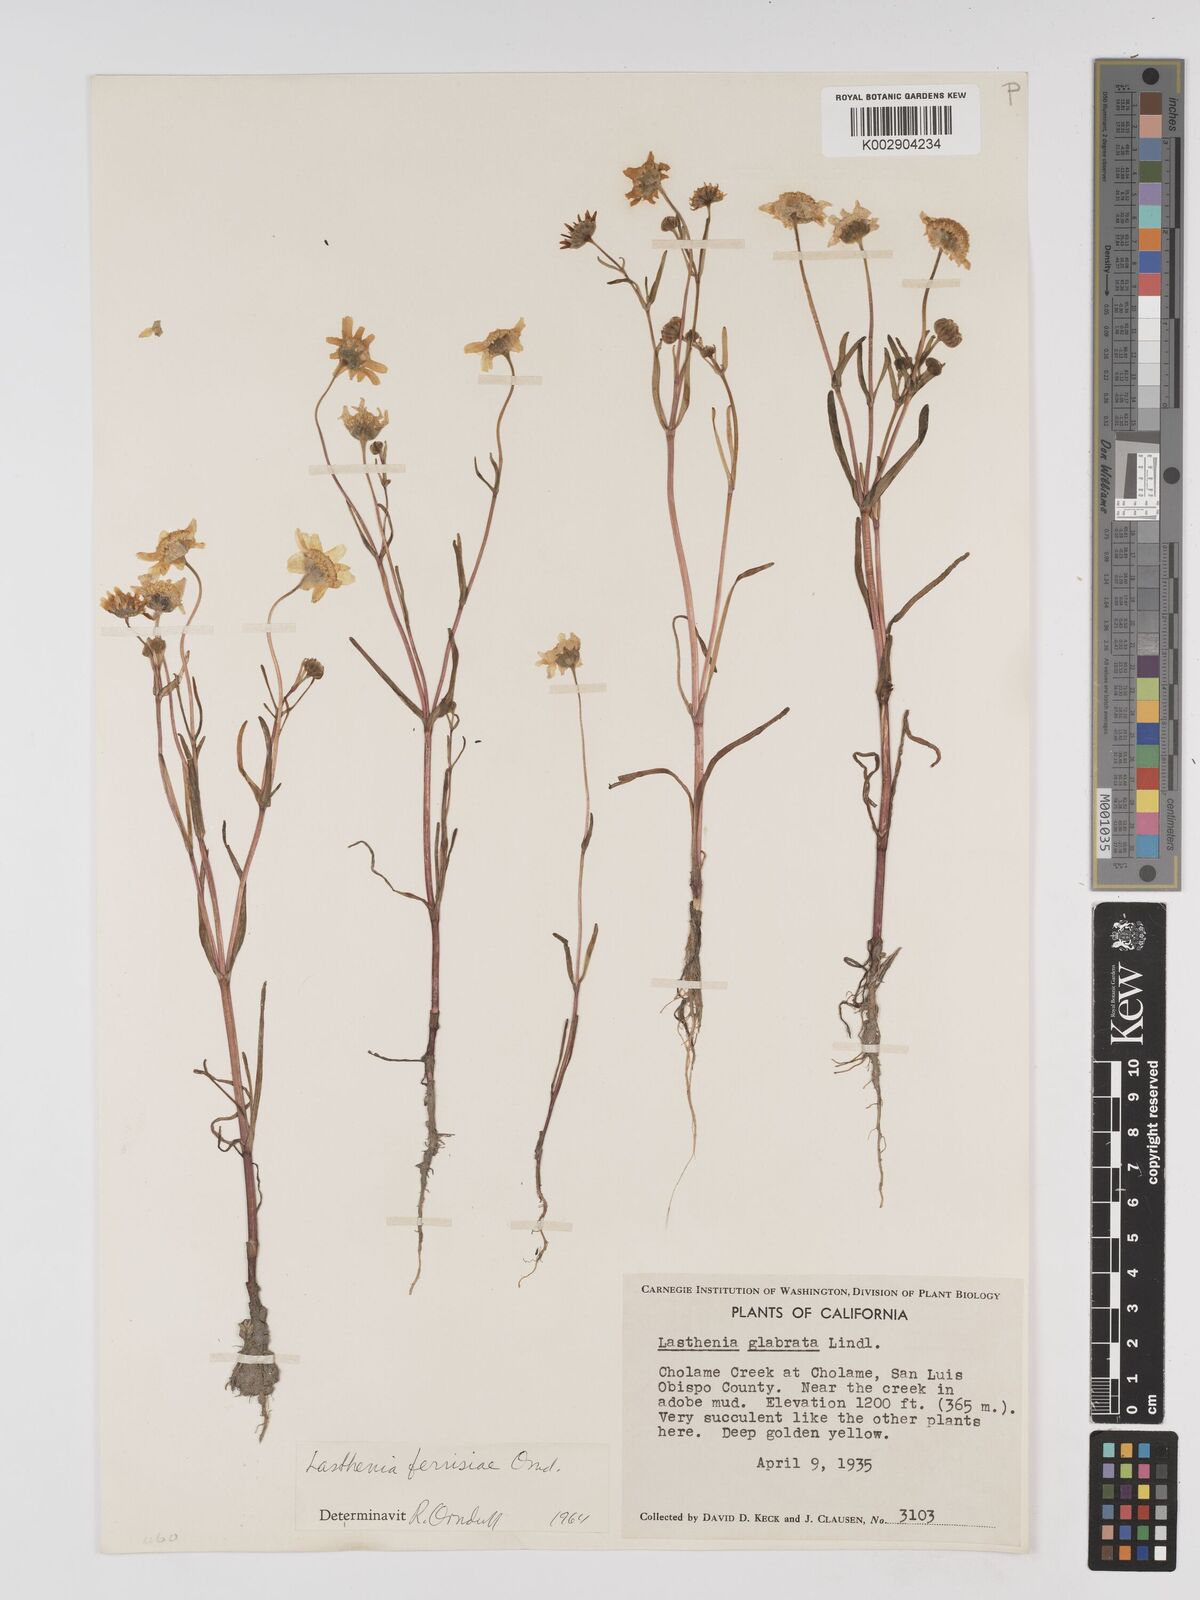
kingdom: Plantae
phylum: Tracheophyta
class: Magnoliopsida
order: Asterales
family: Asteraceae
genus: Lasthenia
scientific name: Lasthenia ferrisiae
